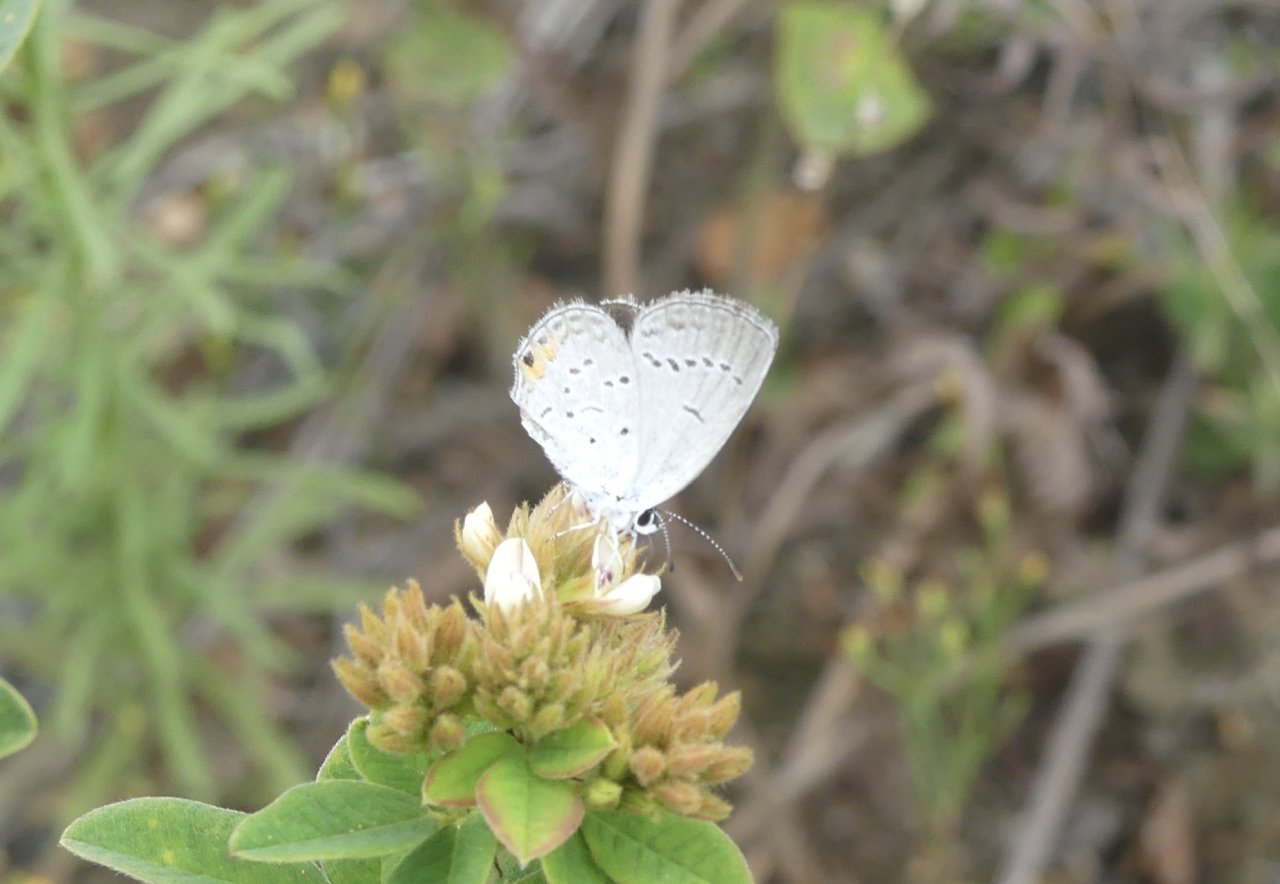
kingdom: Animalia
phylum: Arthropoda
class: Insecta
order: Lepidoptera
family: Lycaenidae
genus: Elkalyce
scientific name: Elkalyce comyntas
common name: Eastern Tailed-Blue
